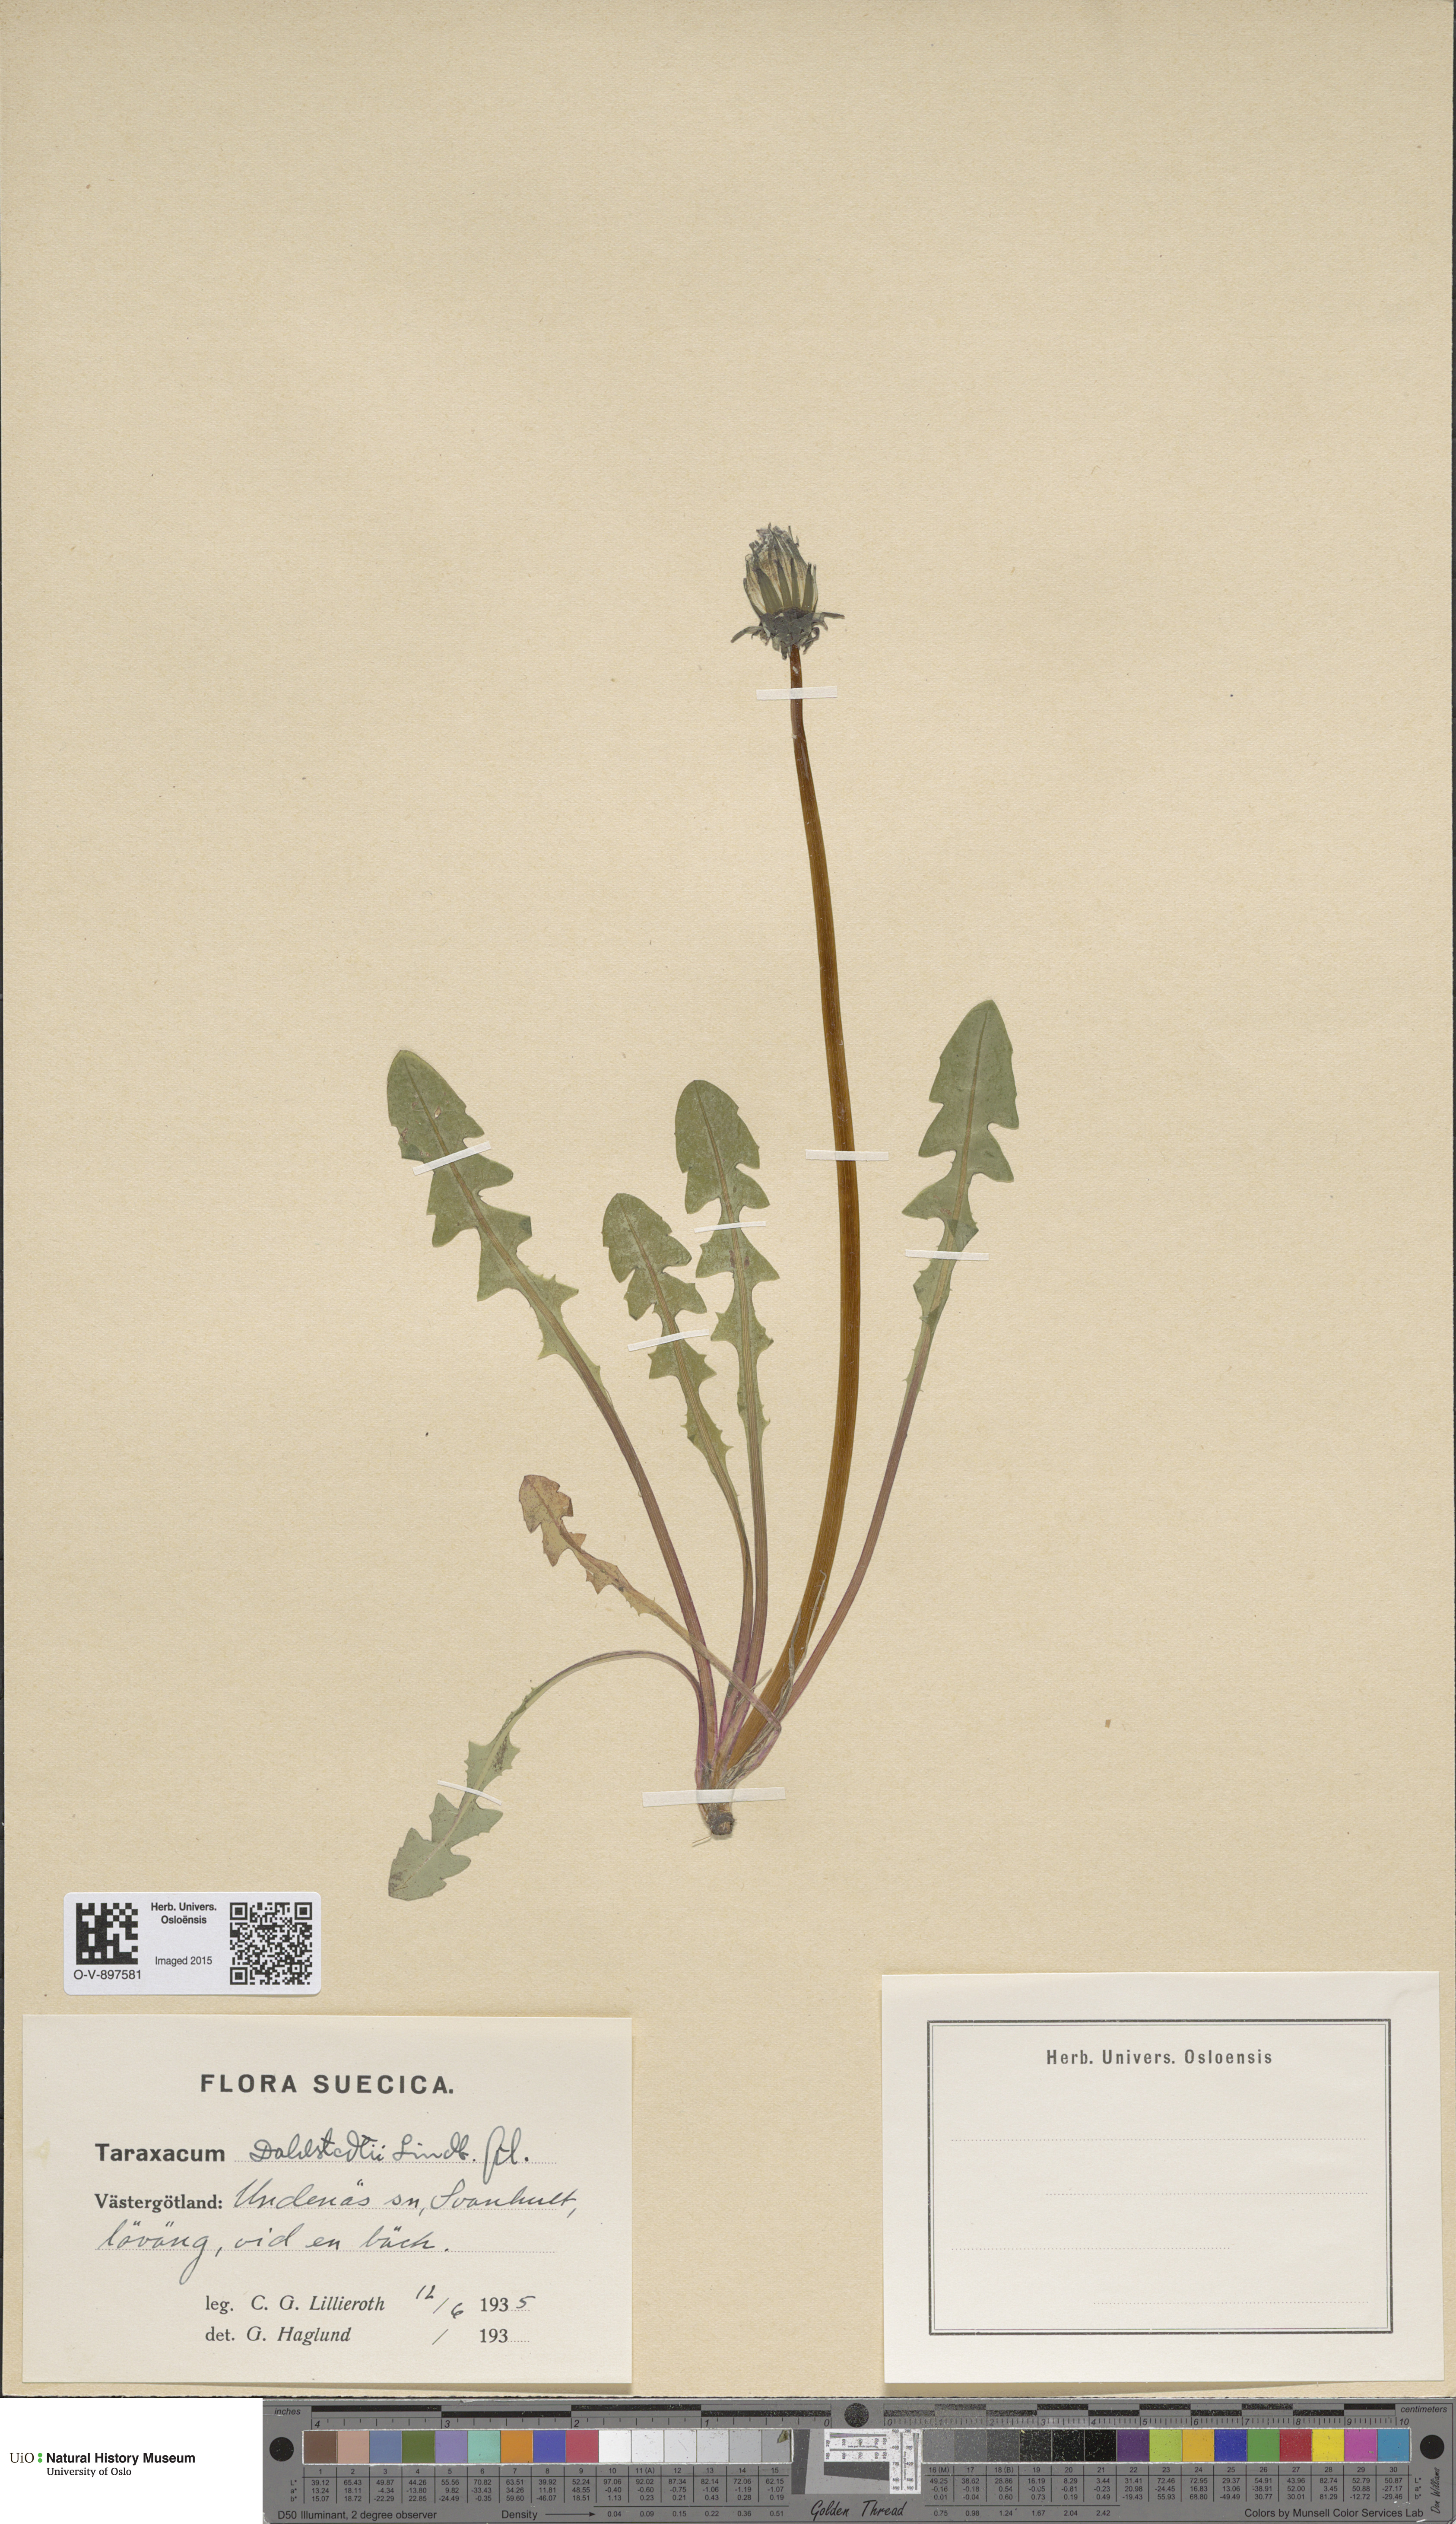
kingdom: Plantae
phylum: Tracheophyta
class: Magnoliopsida
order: Asterales
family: Asteraceae
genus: Taraxacum
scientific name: Taraxacum stenoglossum
